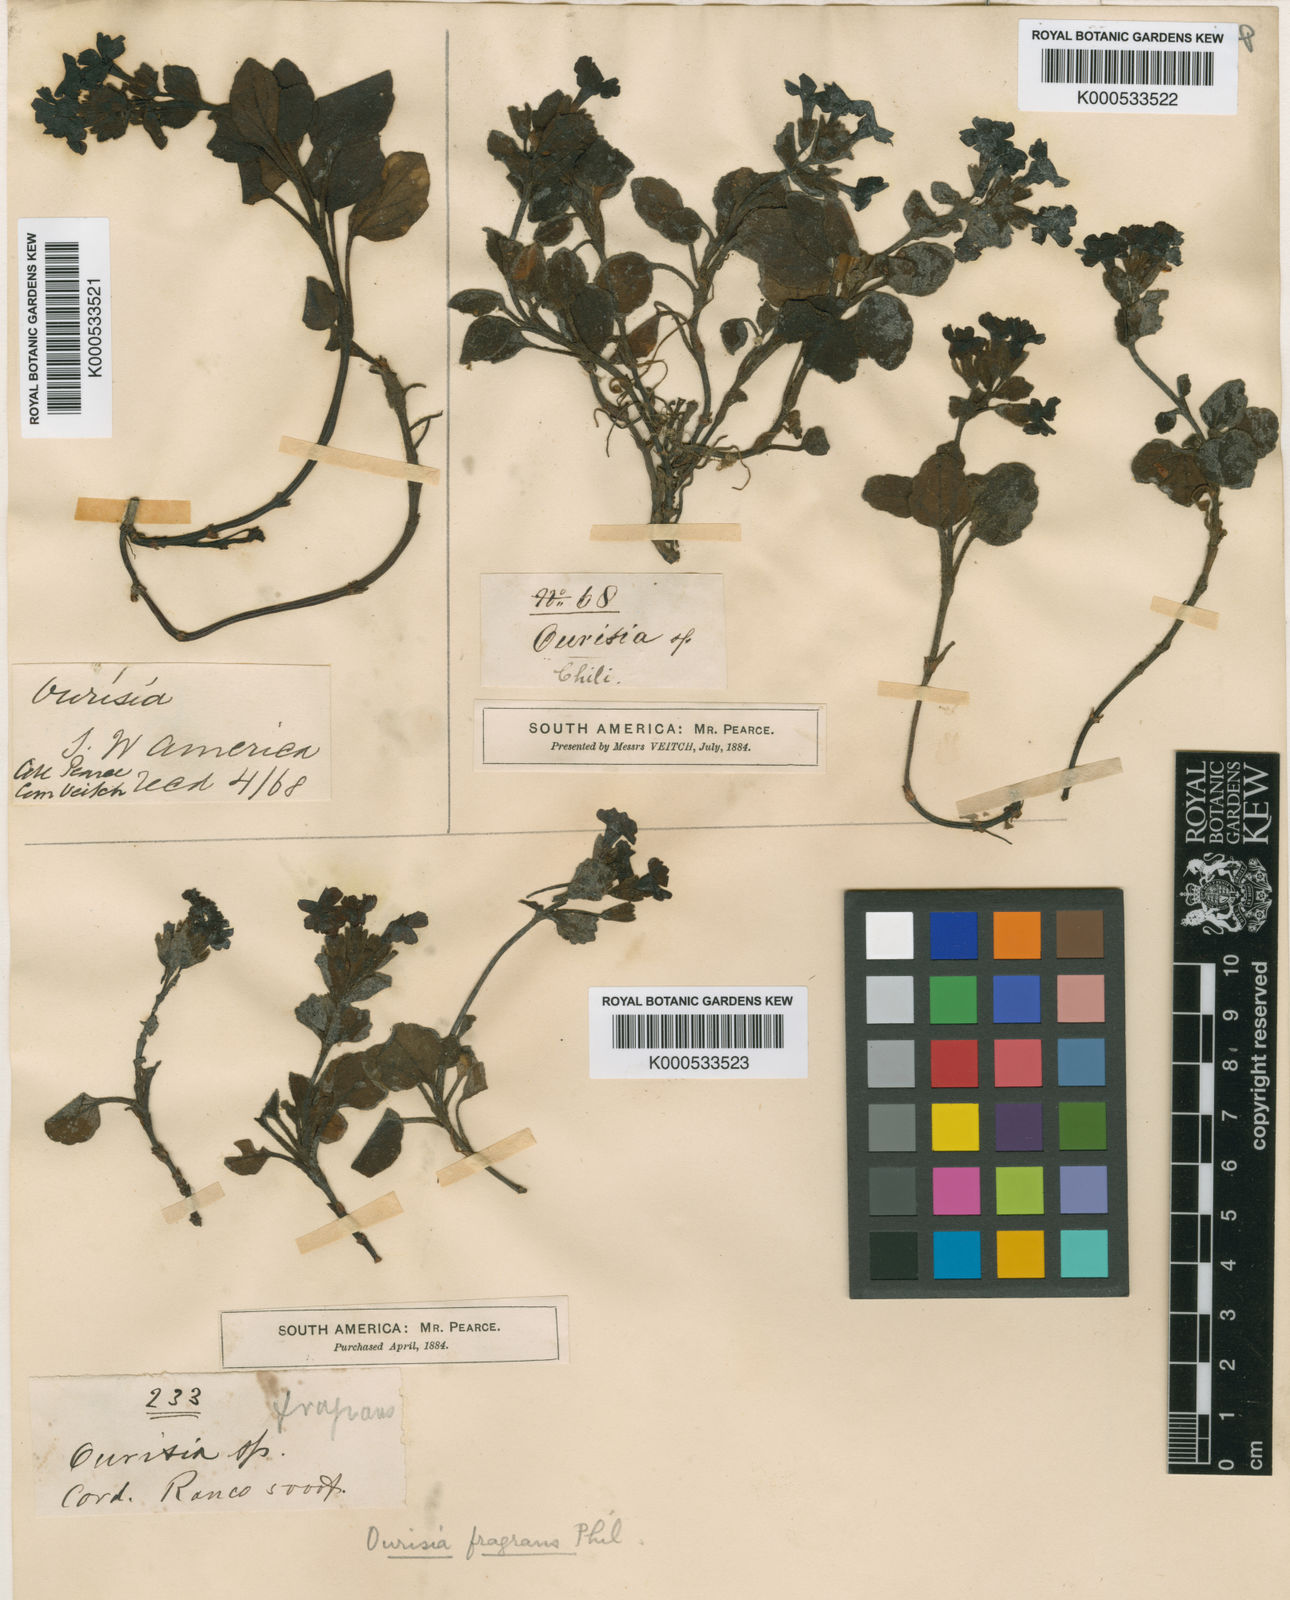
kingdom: Plantae
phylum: Tracheophyta
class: Magnoliopsida
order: Lamiales
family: Plantaginaceae
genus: Ourisia
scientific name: Ourisia fragrans
